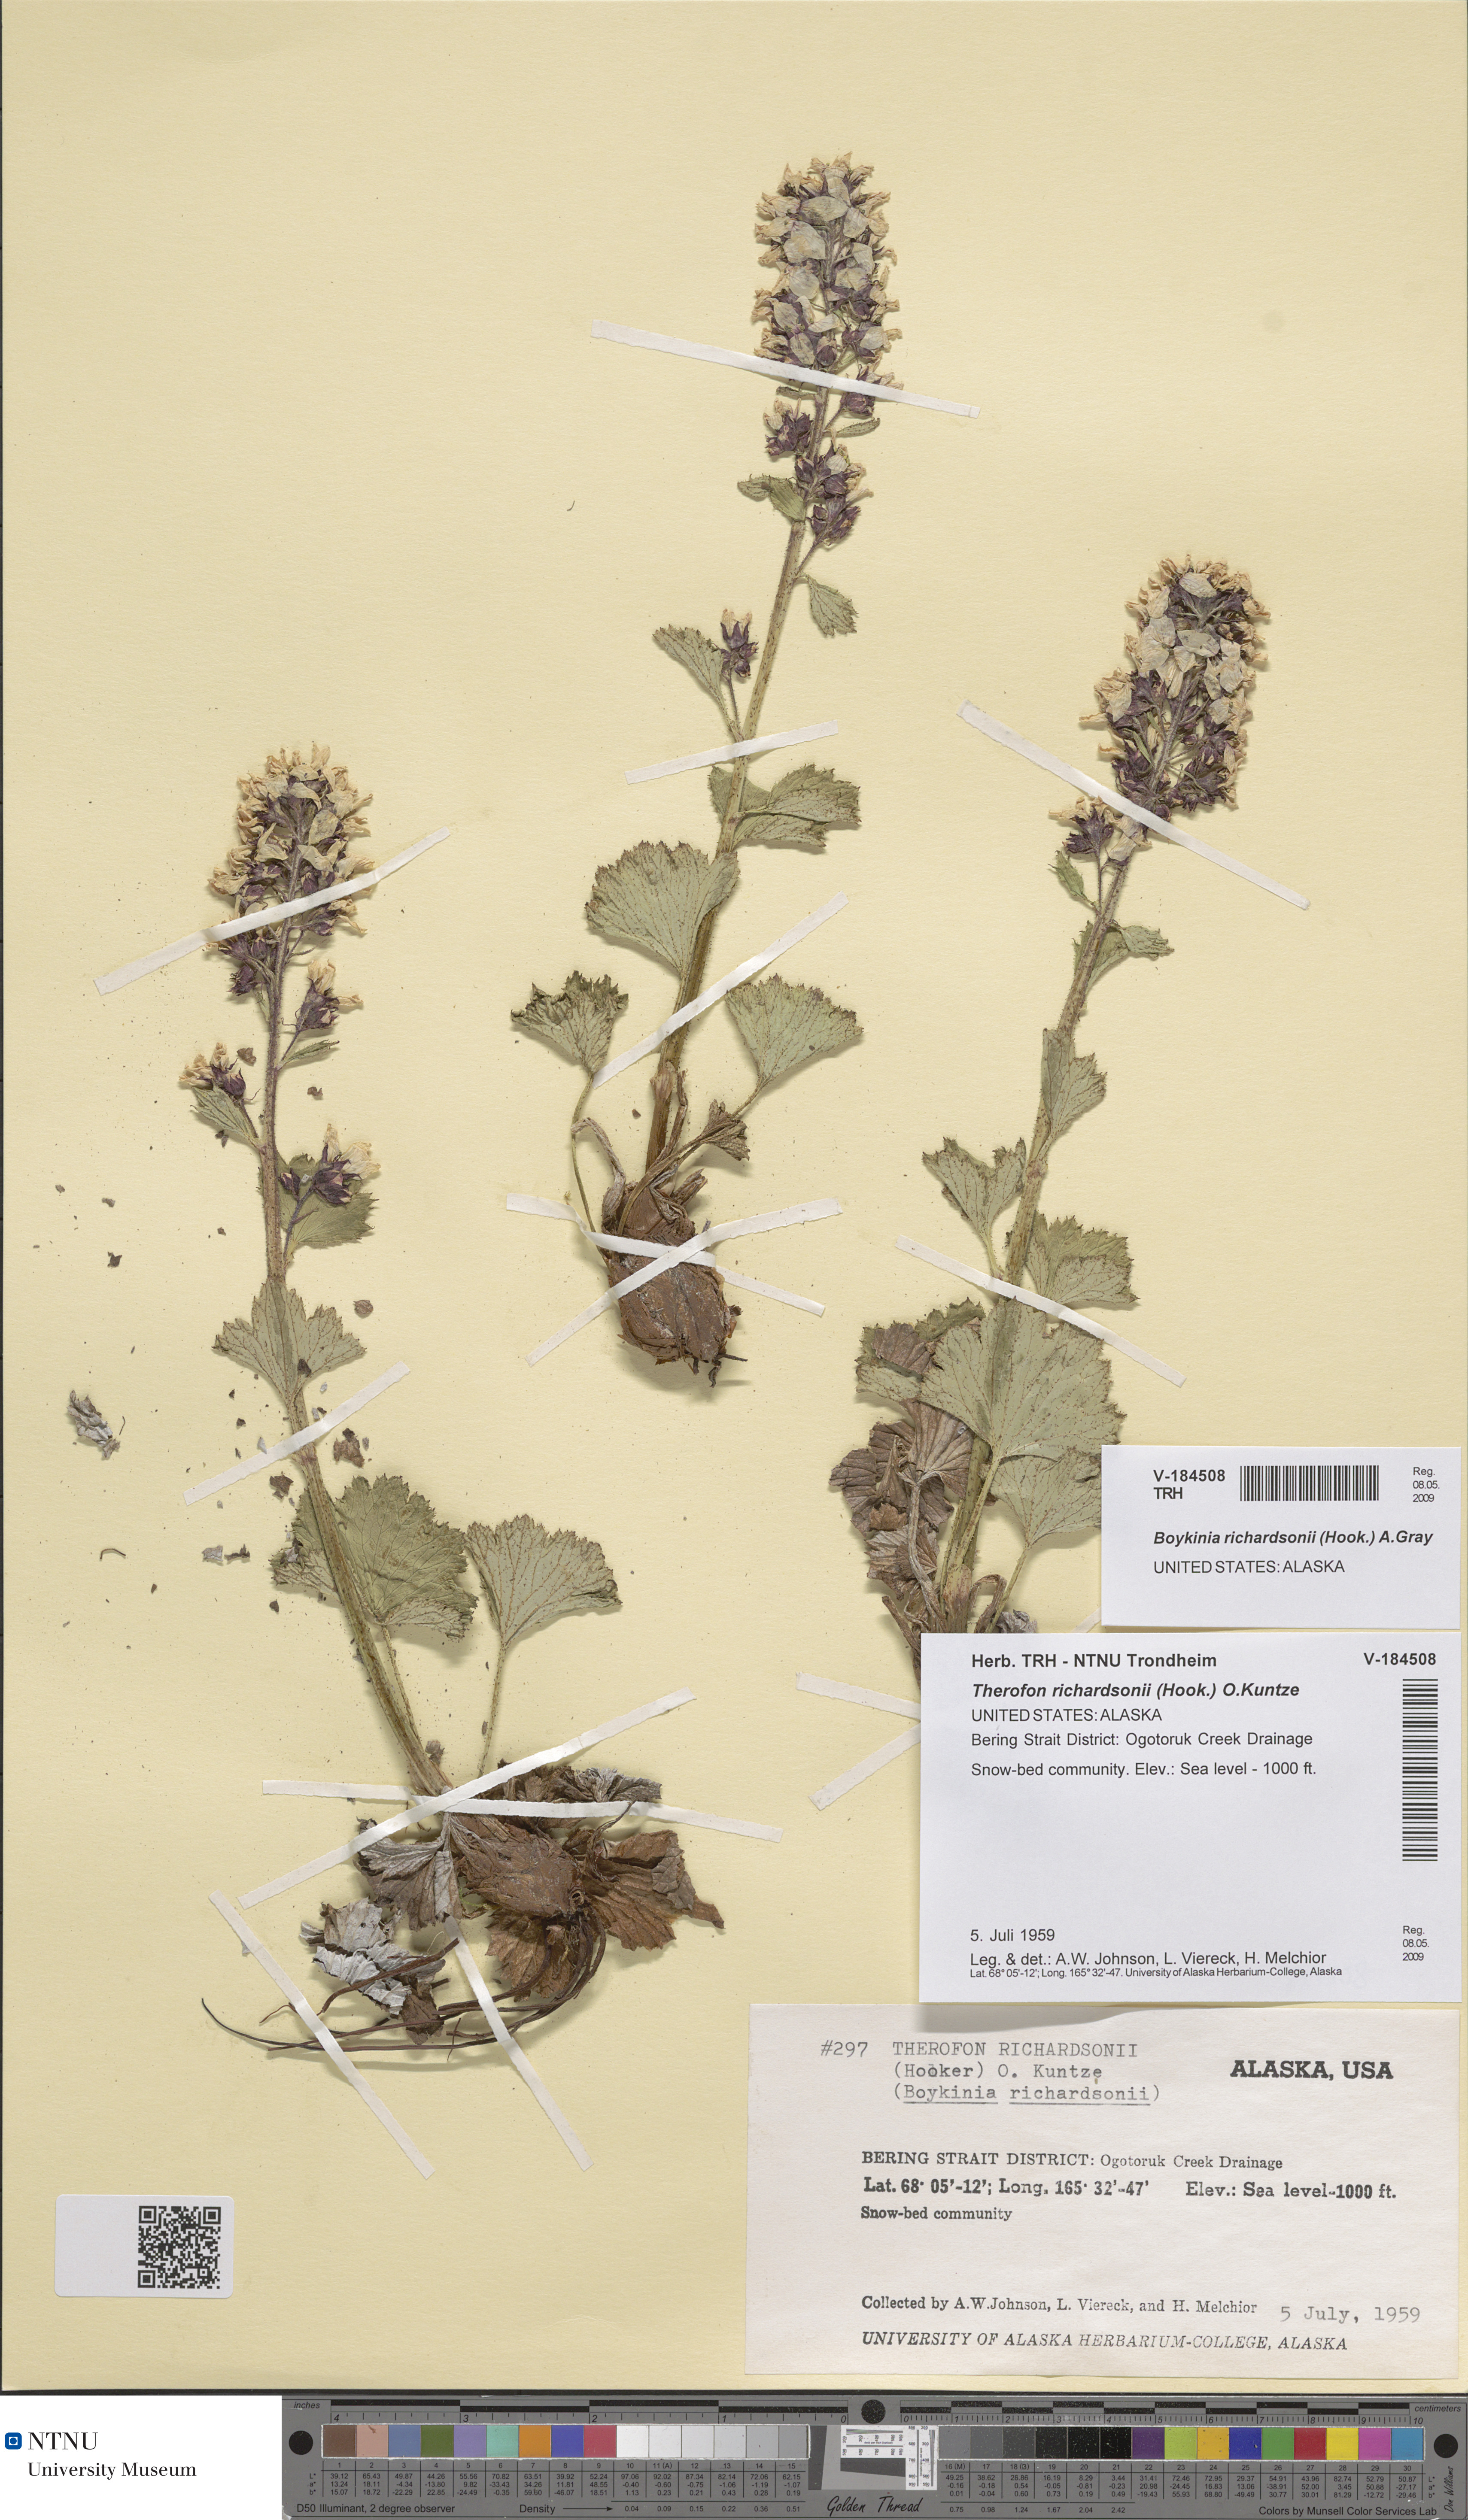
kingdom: Plantae
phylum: Tracheophyta
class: Magnoliopsida
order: Saxifragales
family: Saxifragaceae
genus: Boykinia
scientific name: Boykinia richardsonii
